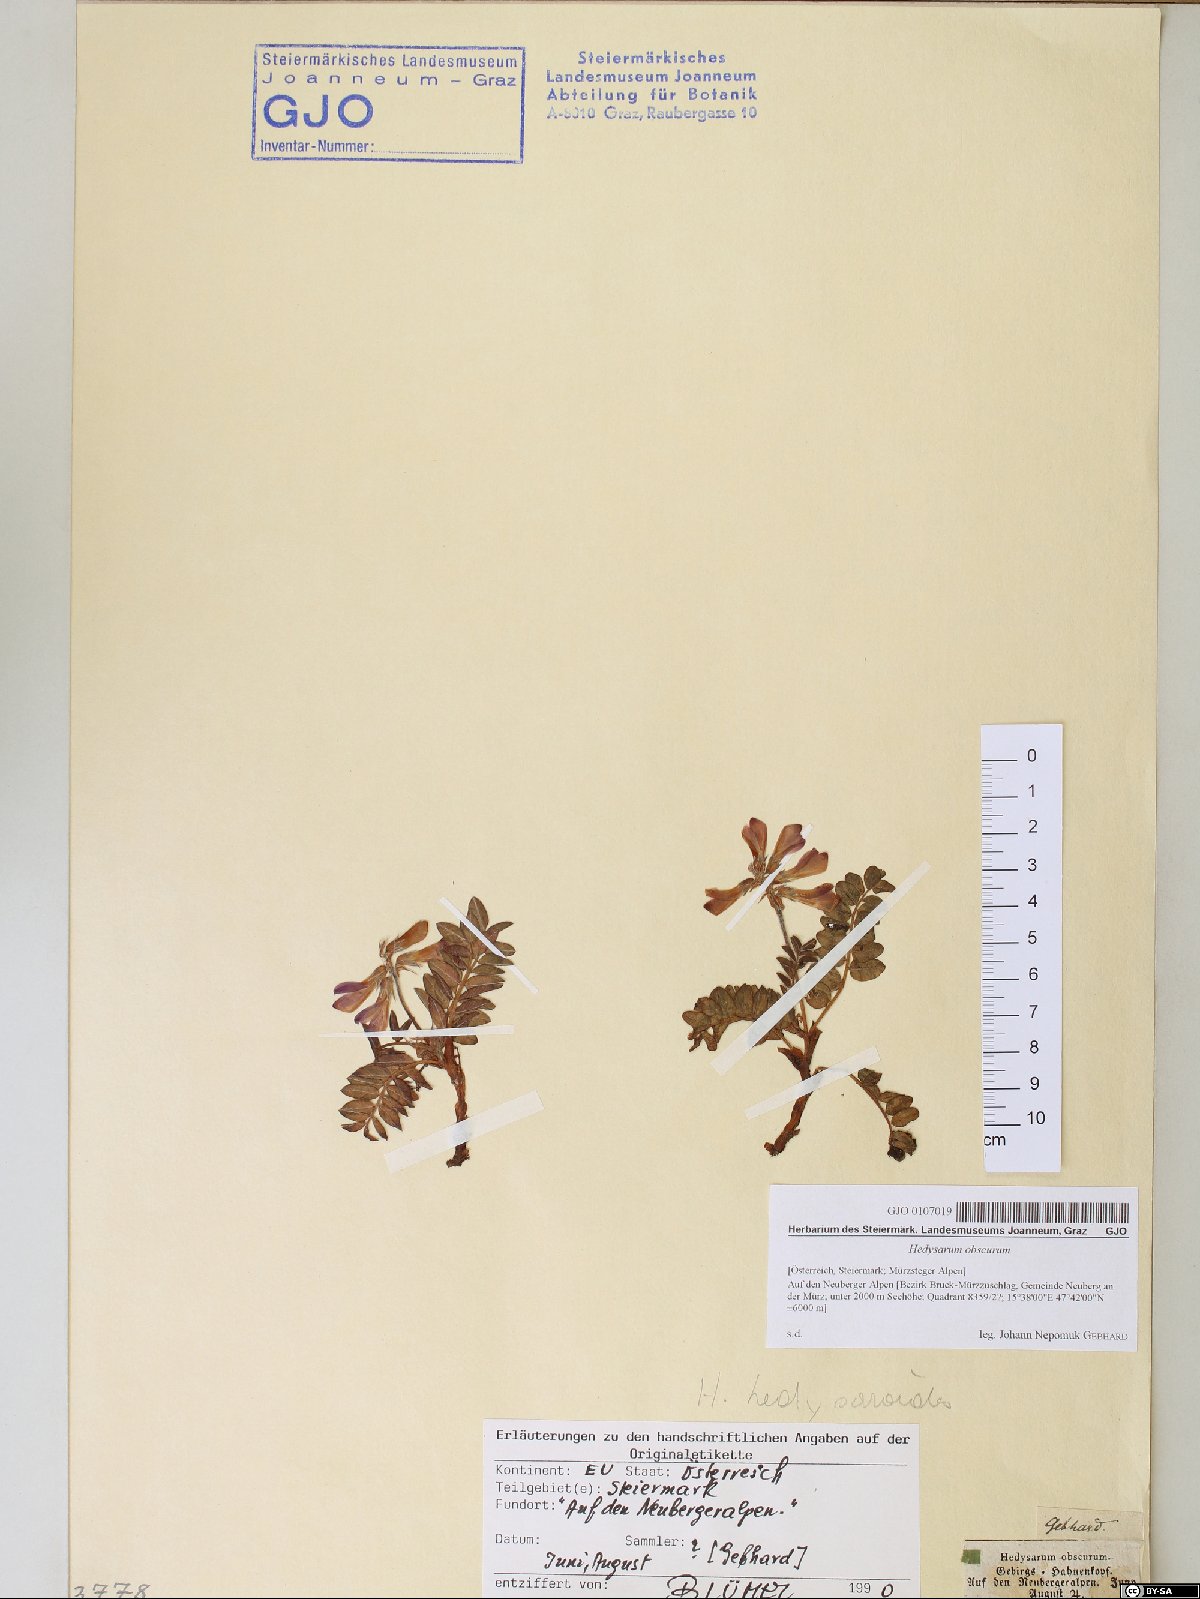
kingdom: Plantae
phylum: Tracheophyta
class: Magnoliopsida
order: Fabales
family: Fabaceae
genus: Hedysarum
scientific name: Hedysarum hedysaroides
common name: Alpine french-honeysuckle
